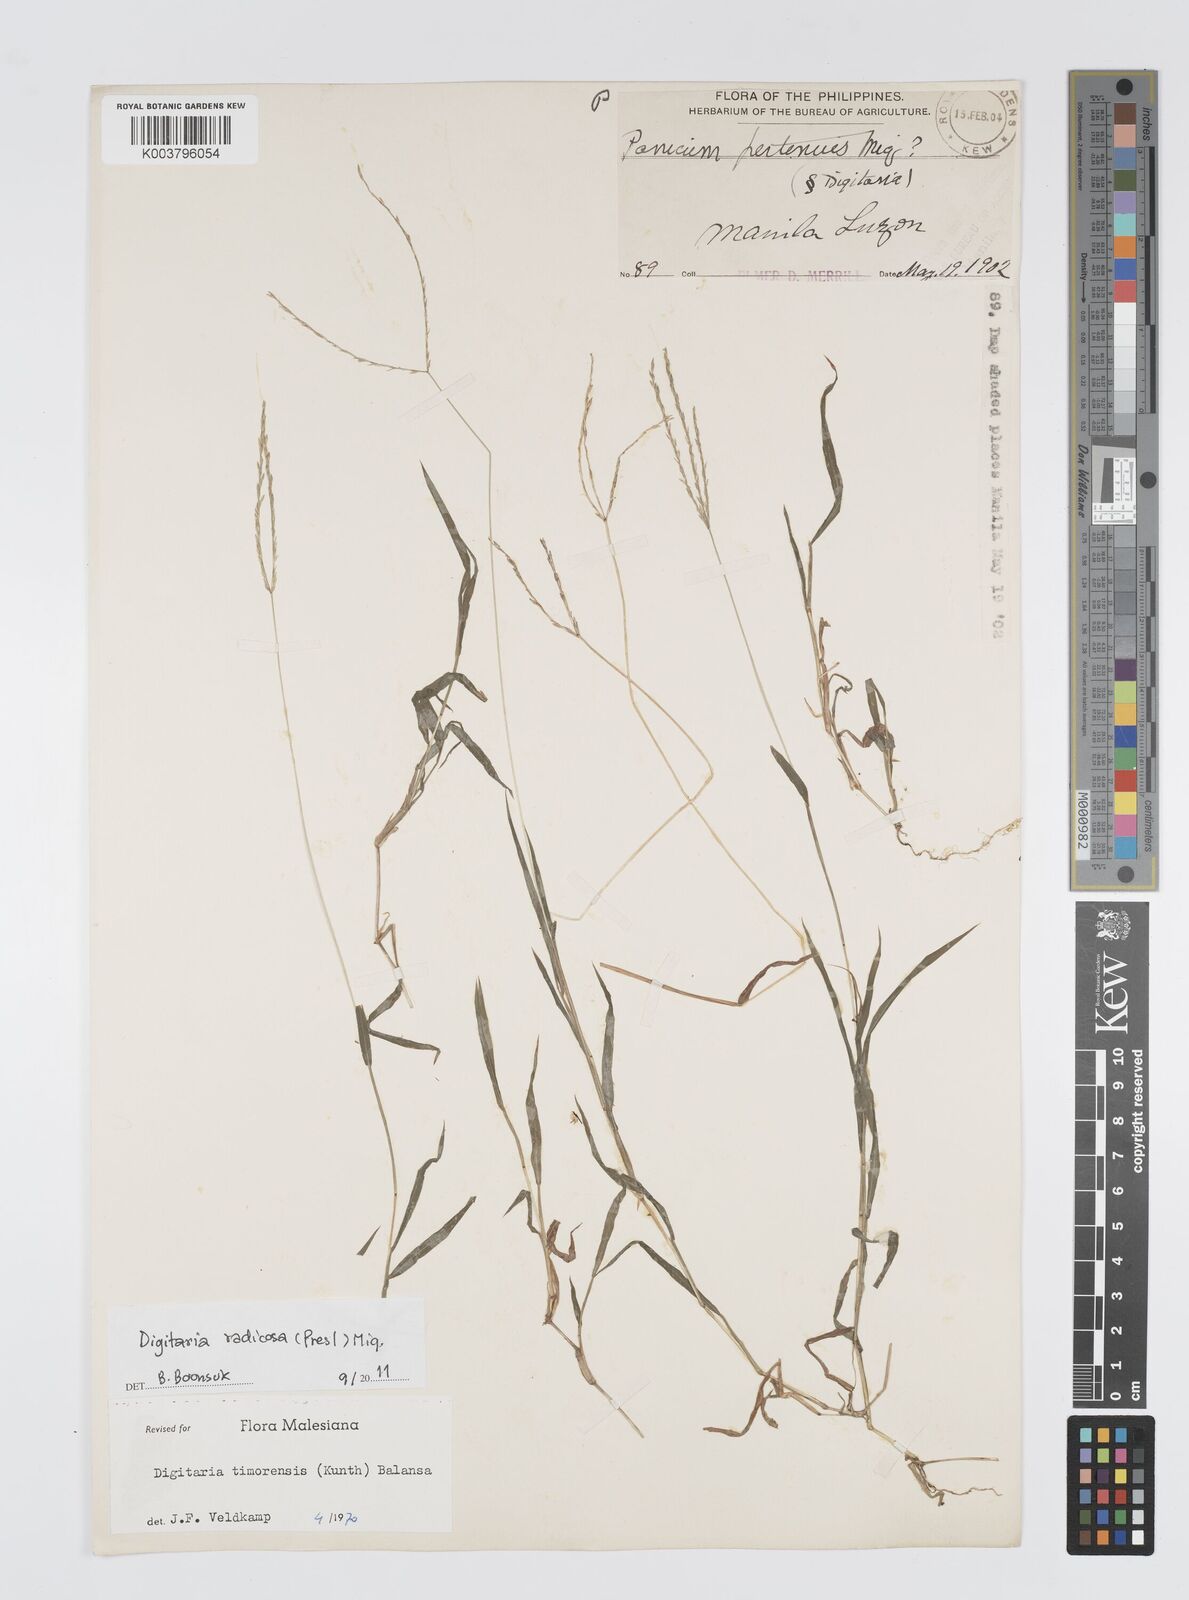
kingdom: Plantae
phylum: Tracheophyta
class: Liliopsida
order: Poales
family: Poaceae
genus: Digitaria
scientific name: Digitaria radicosa
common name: Trailing crabgrass
